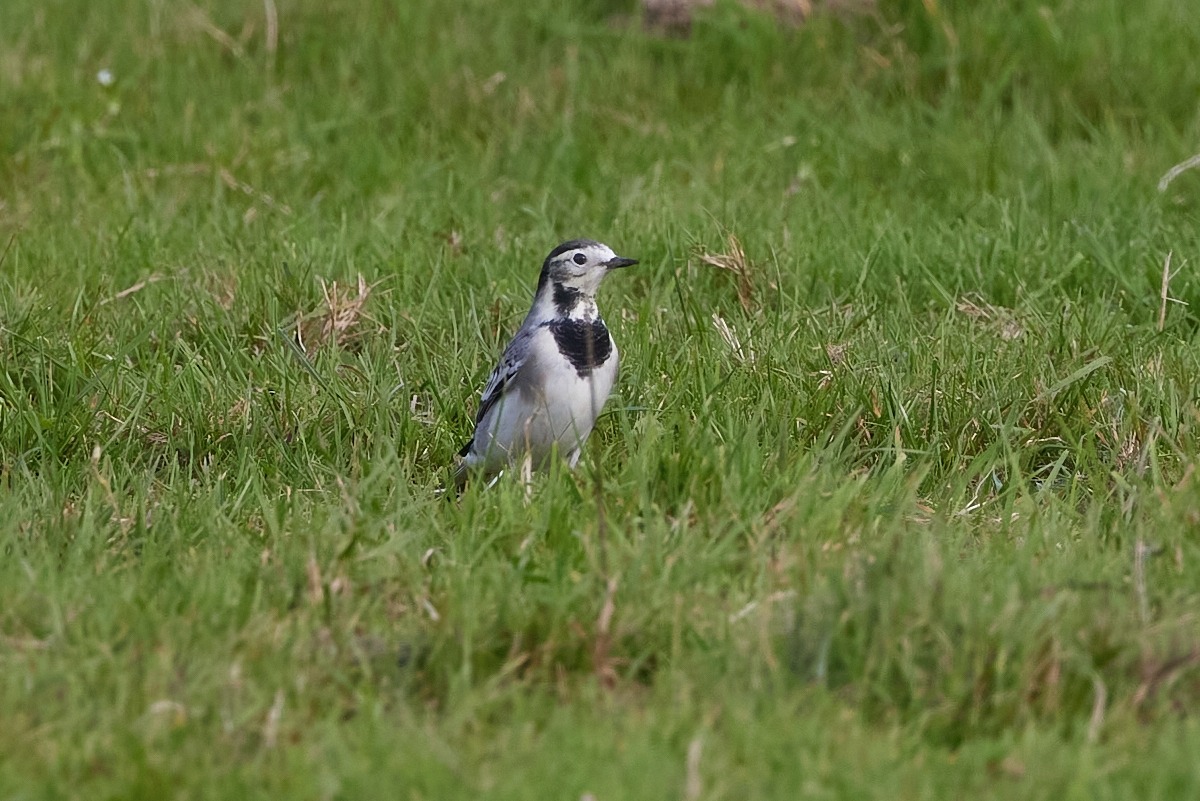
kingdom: Animalia
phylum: Chordata
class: Aves
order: Passeriformes
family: Motacillidae
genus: Motacilla
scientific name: Motacilla alba
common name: Hvid vipstjert
